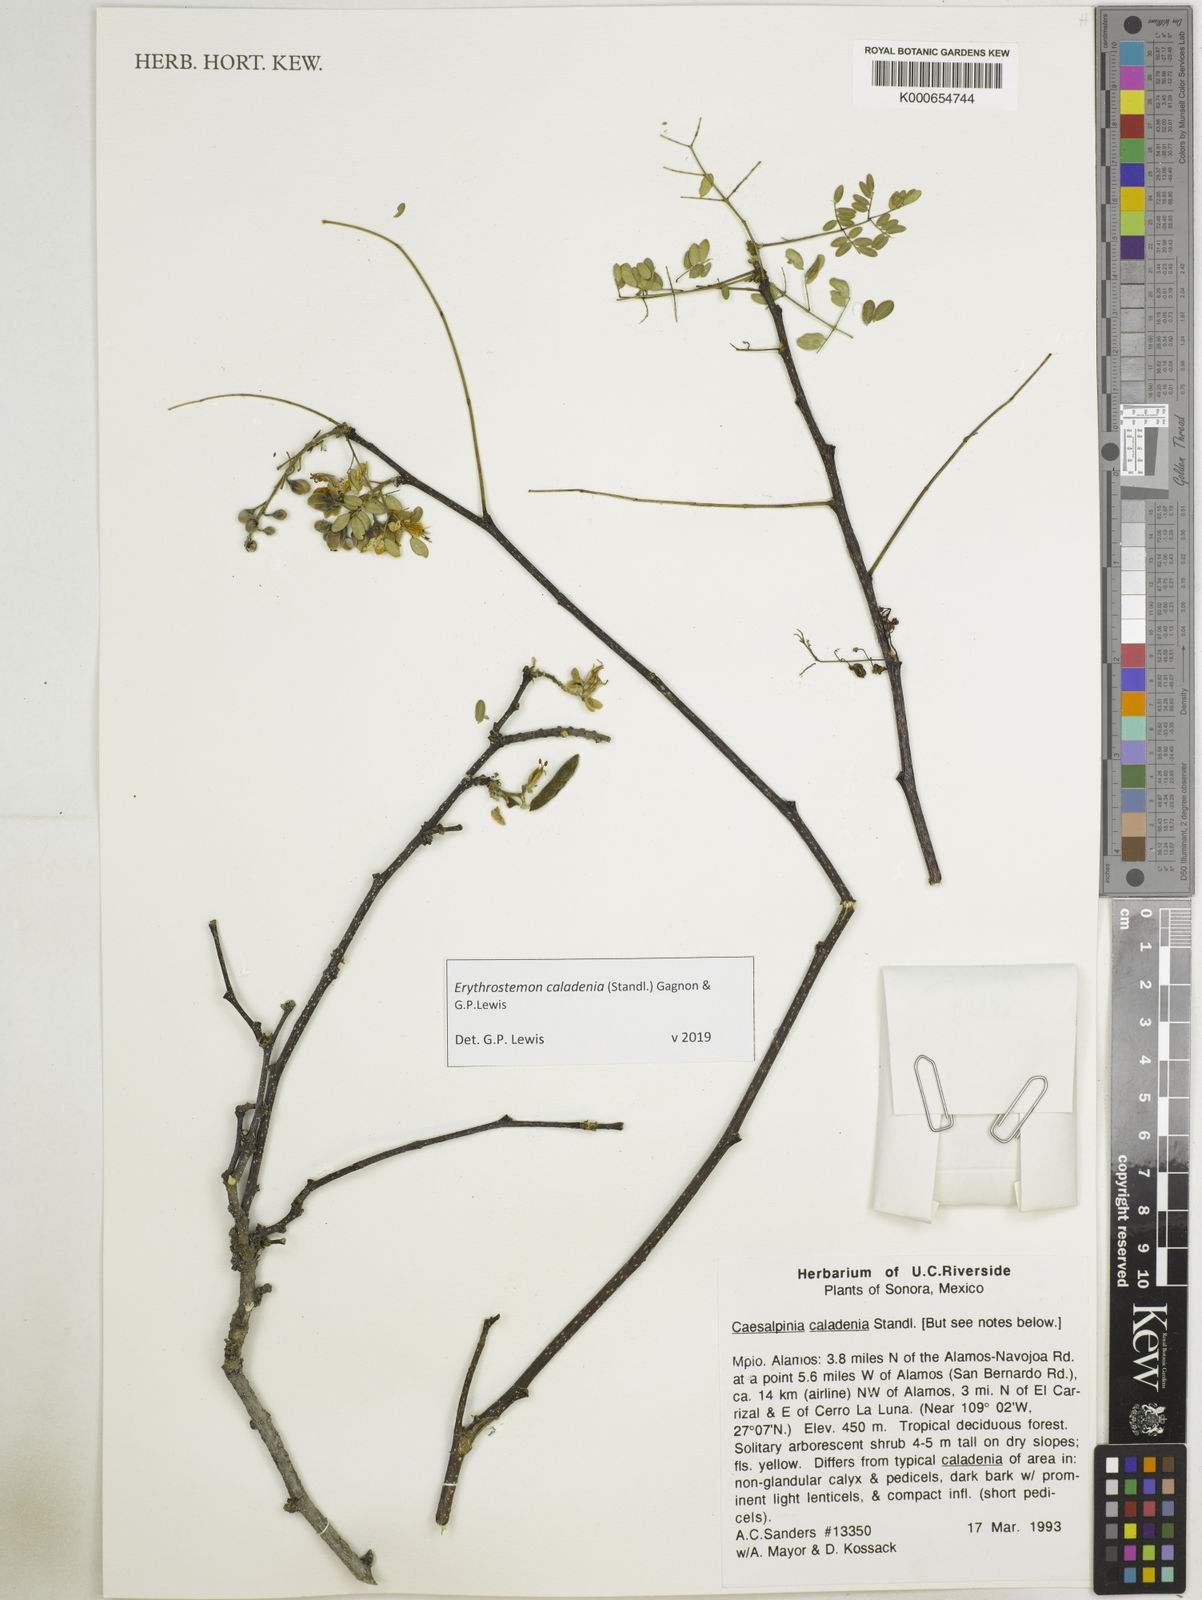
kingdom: Plantae
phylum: Tracheophyta
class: Magnoliopsida
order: Fabales
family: Fabaceae
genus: Erythrostemon
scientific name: Erythrostemon caladenia
